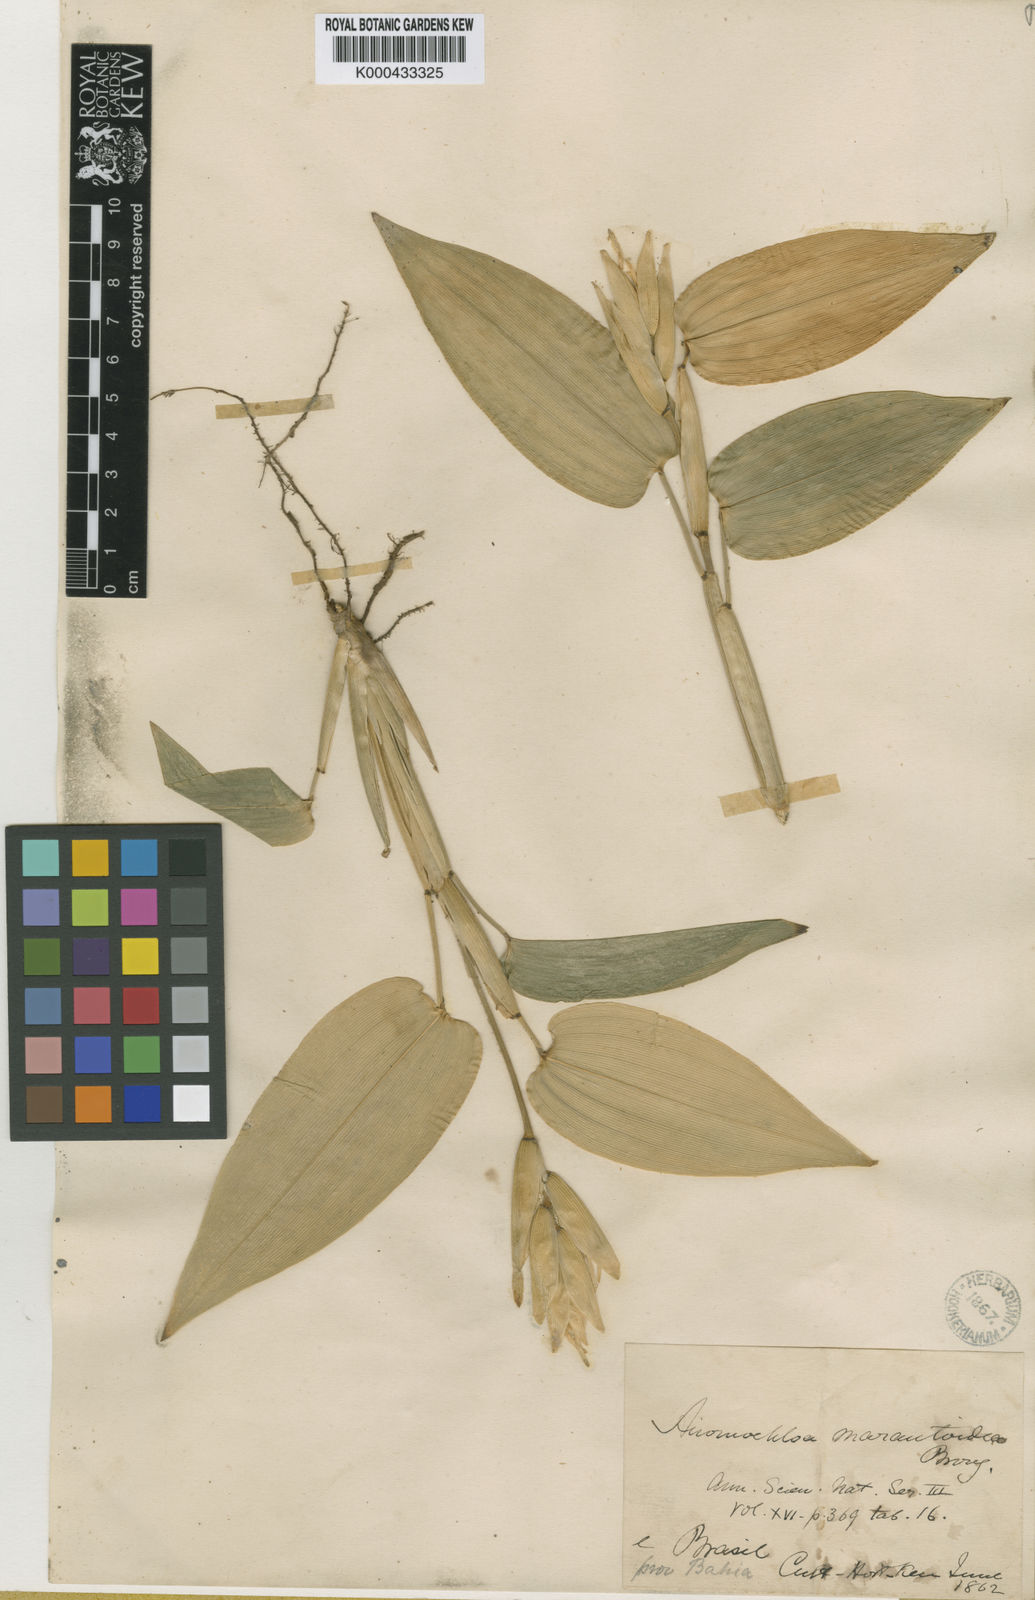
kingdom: Plantae
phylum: Tracheophyta
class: Liliopsida
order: Poales
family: Poaceae
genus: Anomochloa
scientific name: Anomochloa marantoidea
